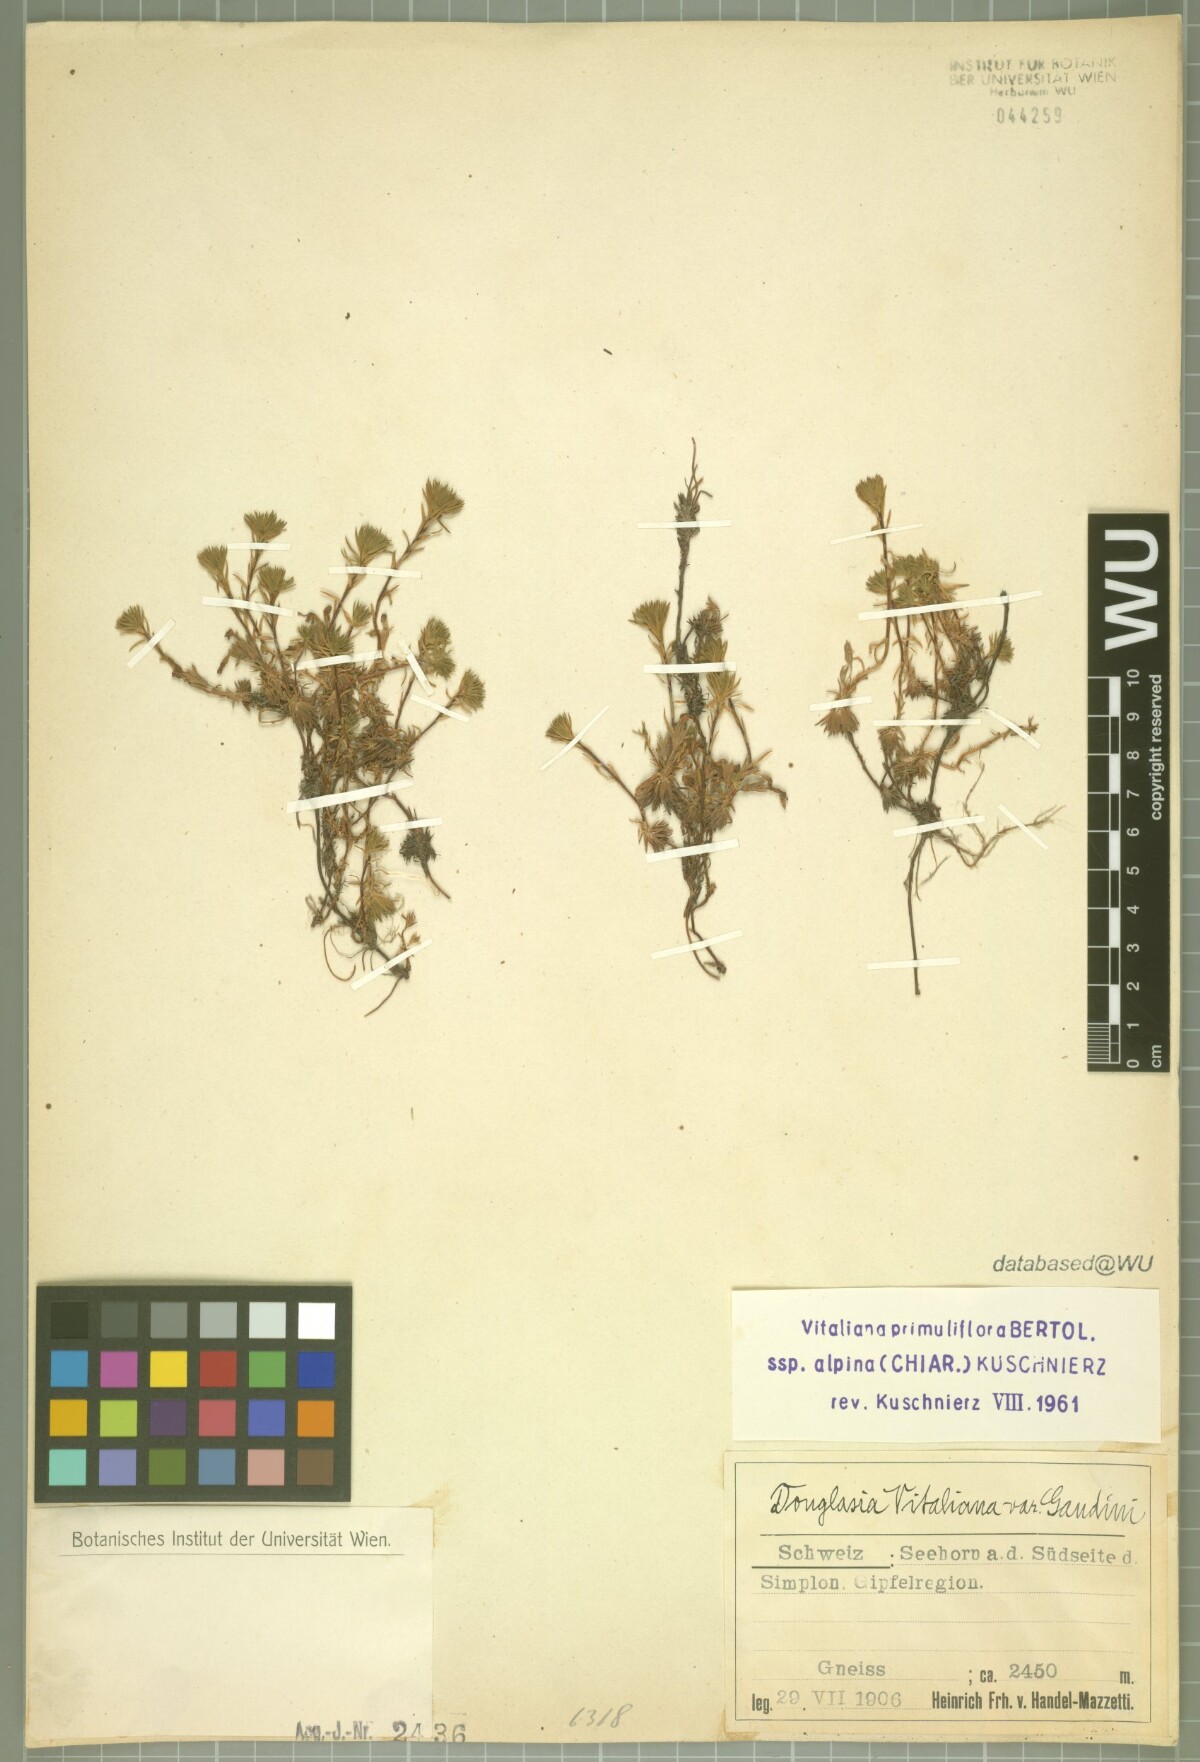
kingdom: Plantae
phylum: Tracheophyta
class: Magnoliopsida
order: Ericales
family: Primulaceae
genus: Androsace
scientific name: Androsace vitaliana
